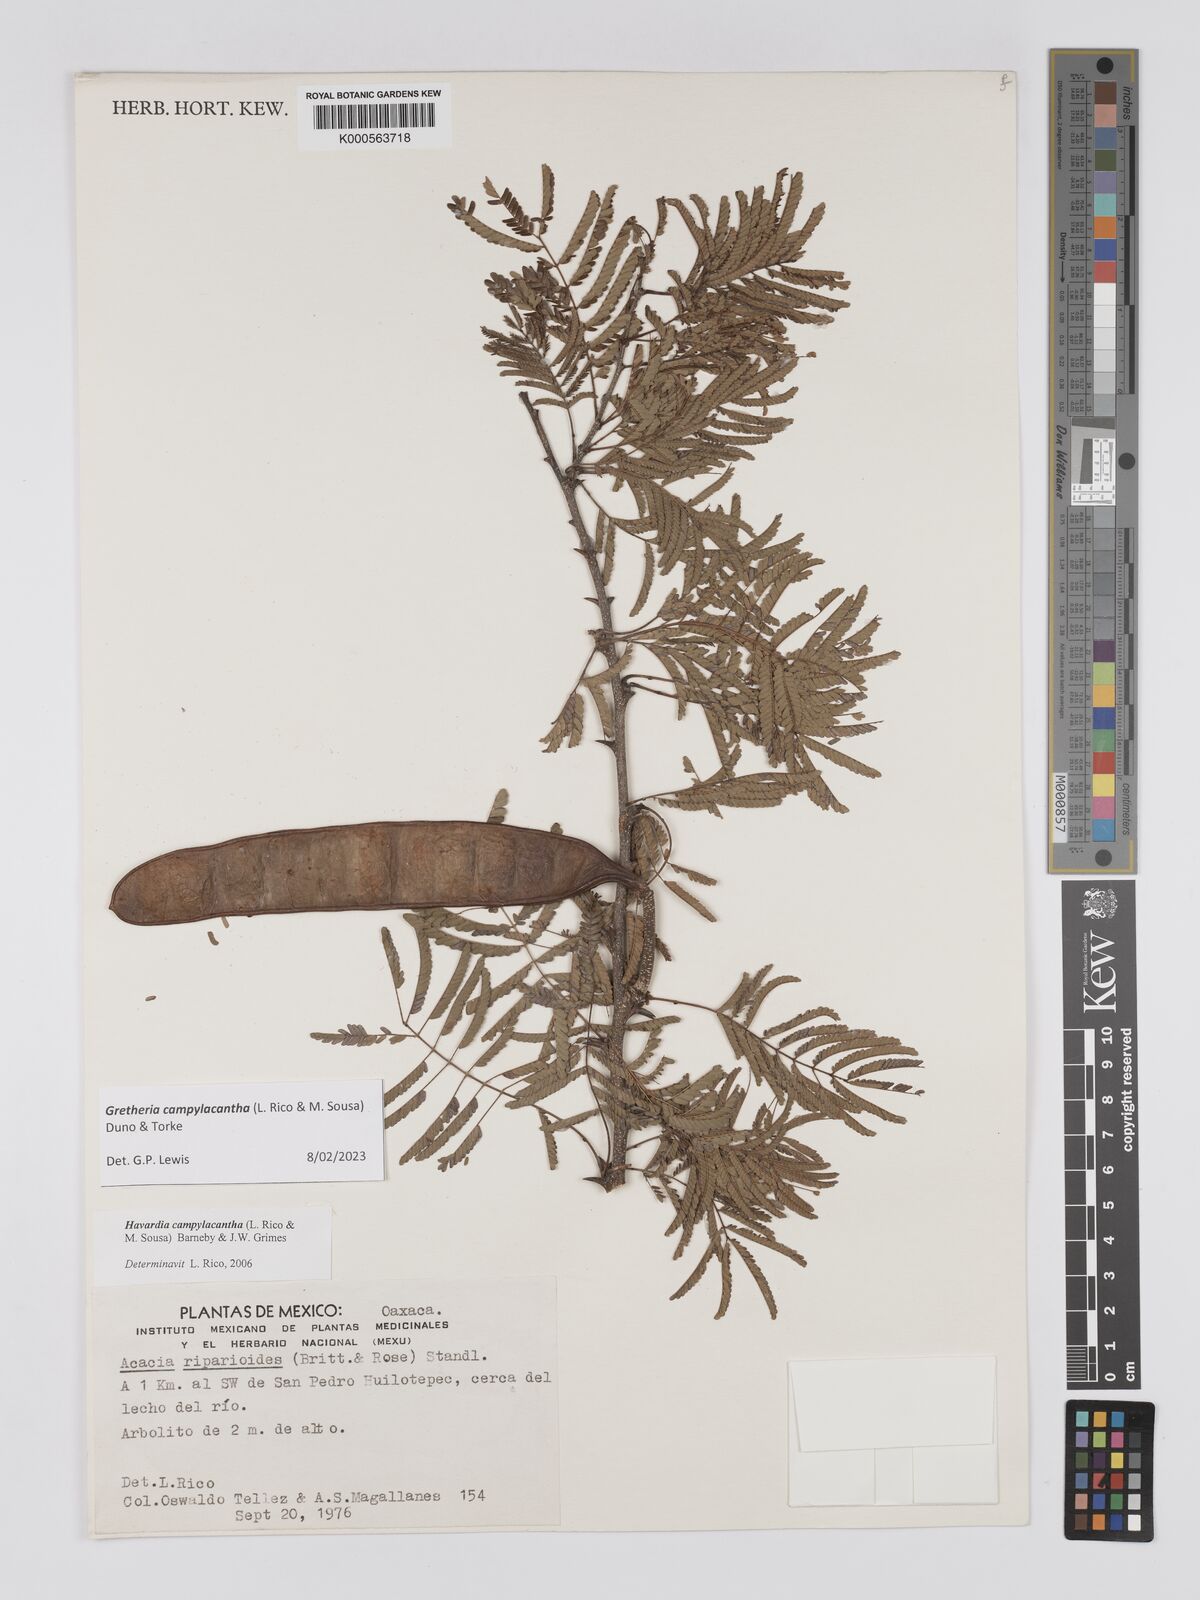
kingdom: Plantae
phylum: Tracheophyta
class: Magnoliopsida
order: Fabales
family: Fabaceae
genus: Havardia
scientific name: Havardia campylacantha
